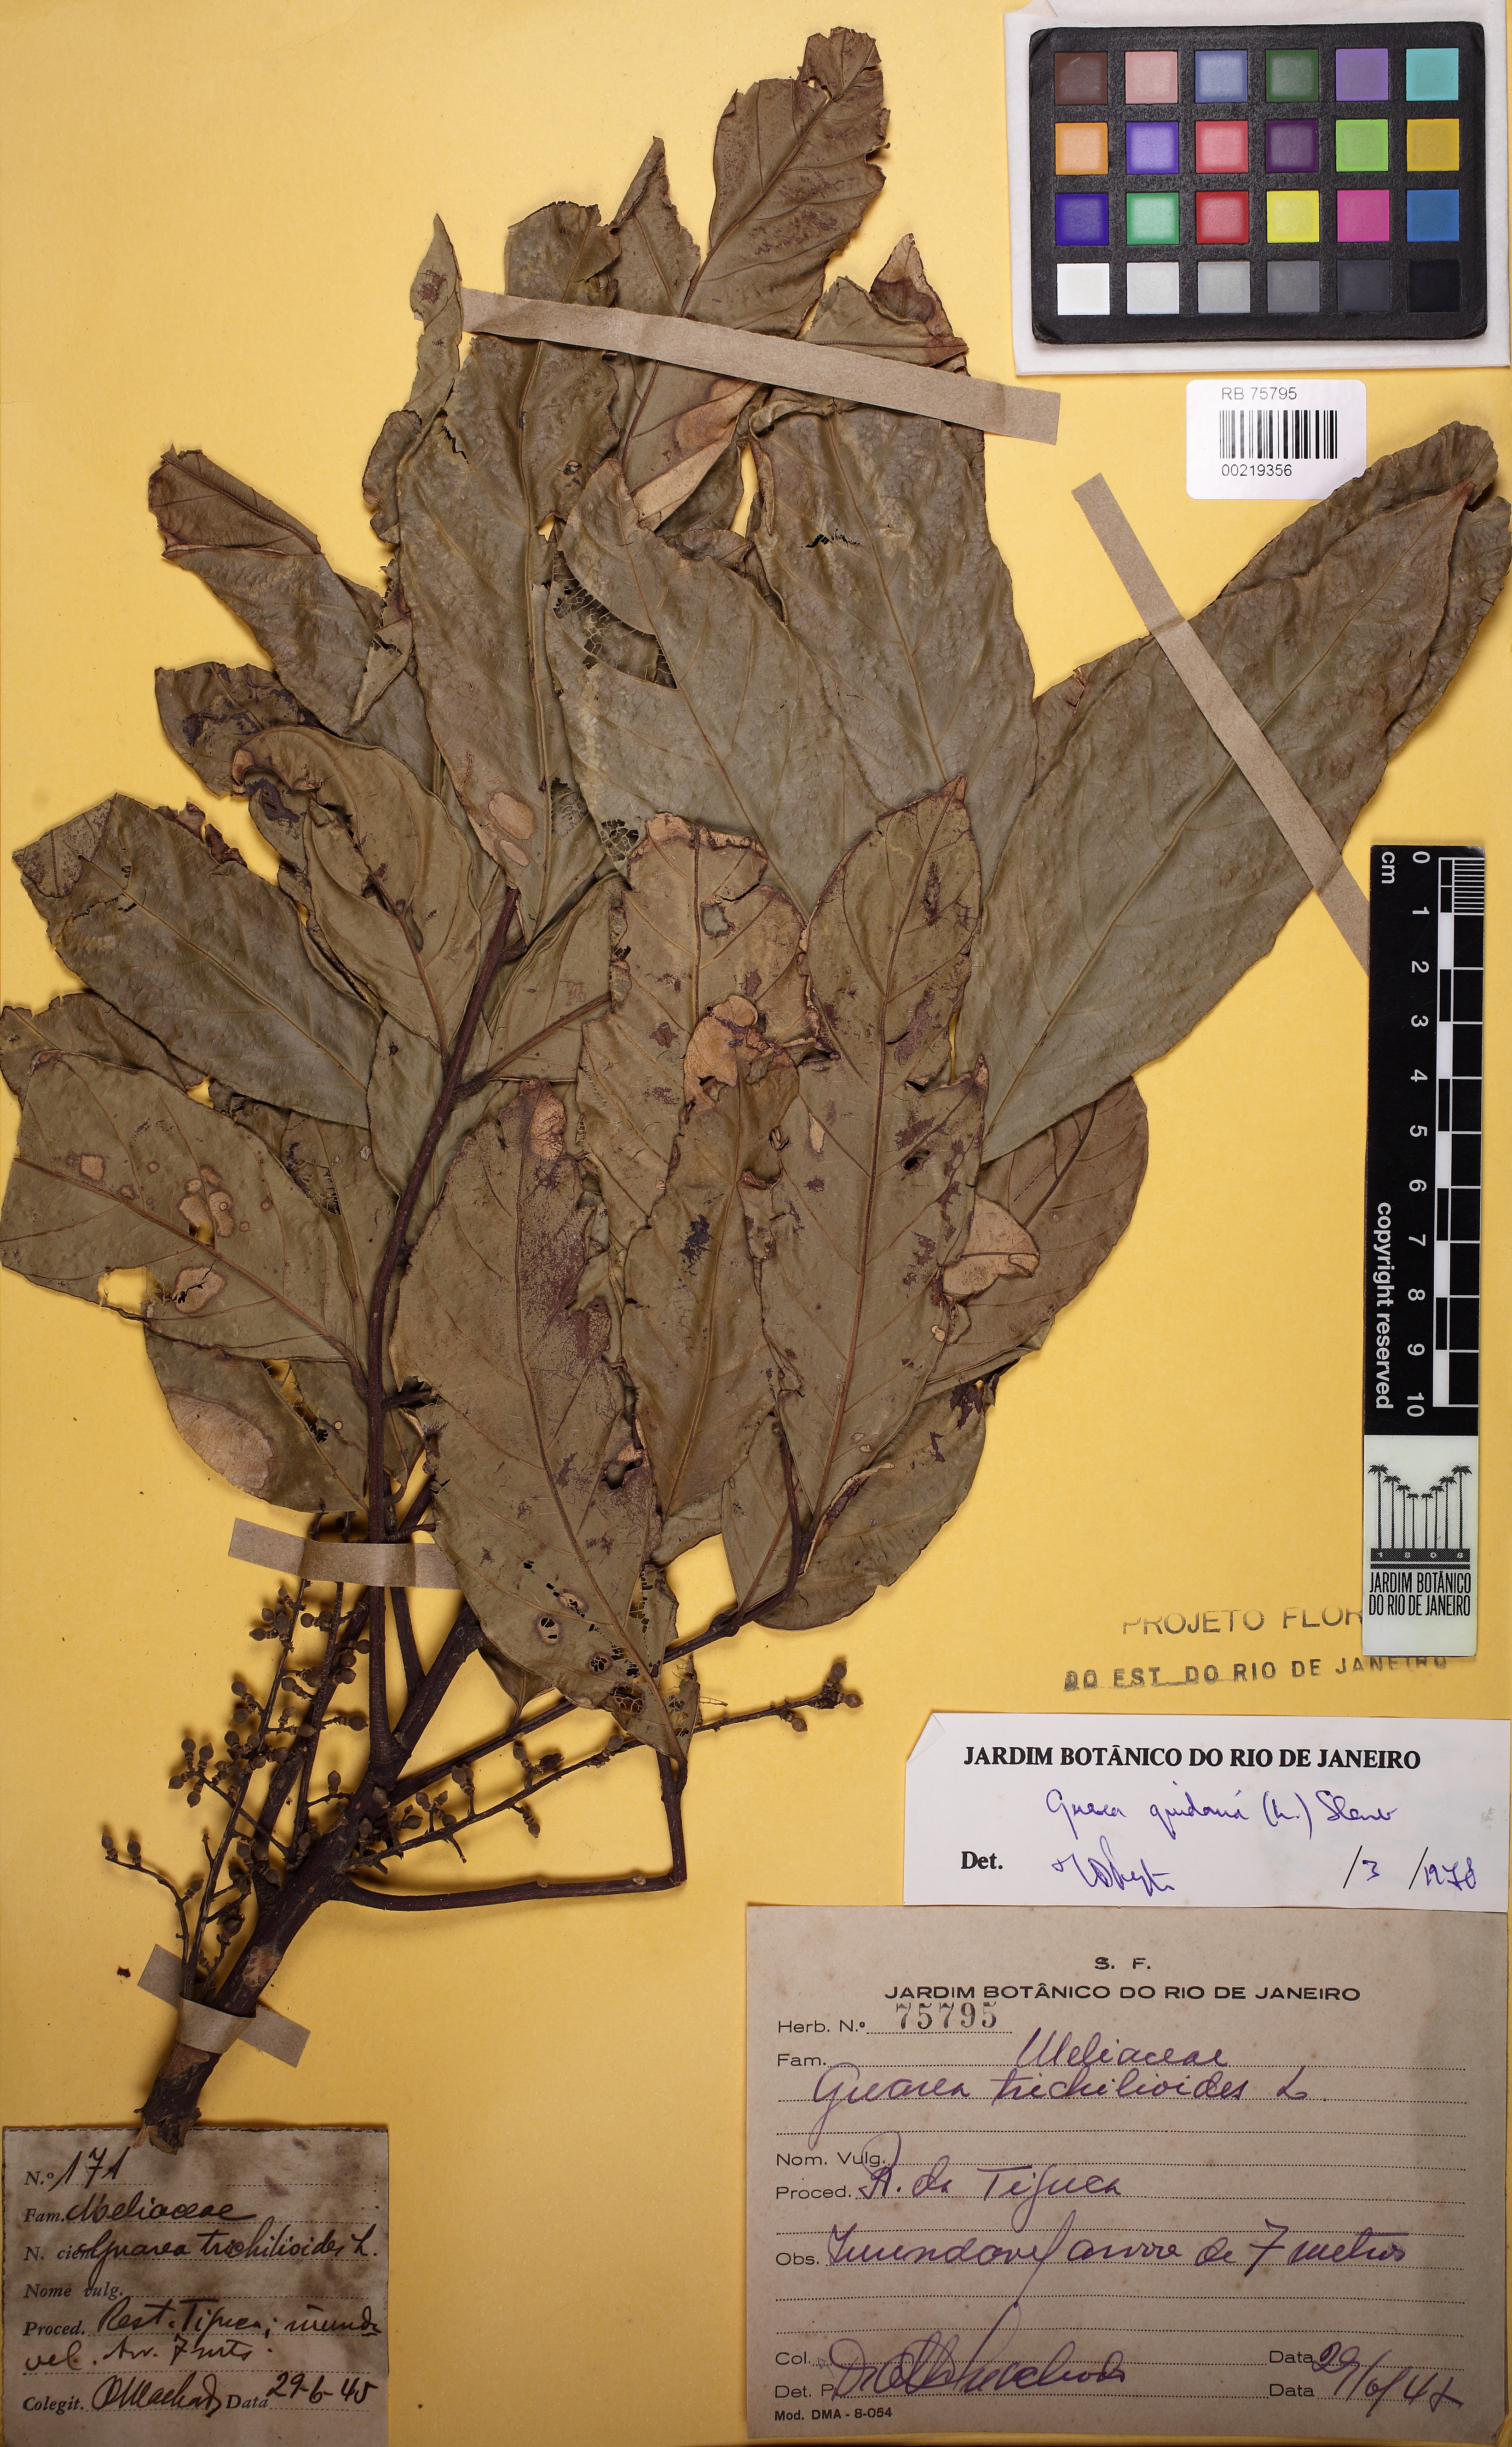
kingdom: Plantae
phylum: Tracheophyta
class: Magnoliopsida
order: Sapindales
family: Meliaceae
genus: Guarea
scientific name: Guarea guidonia
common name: American muskwood
